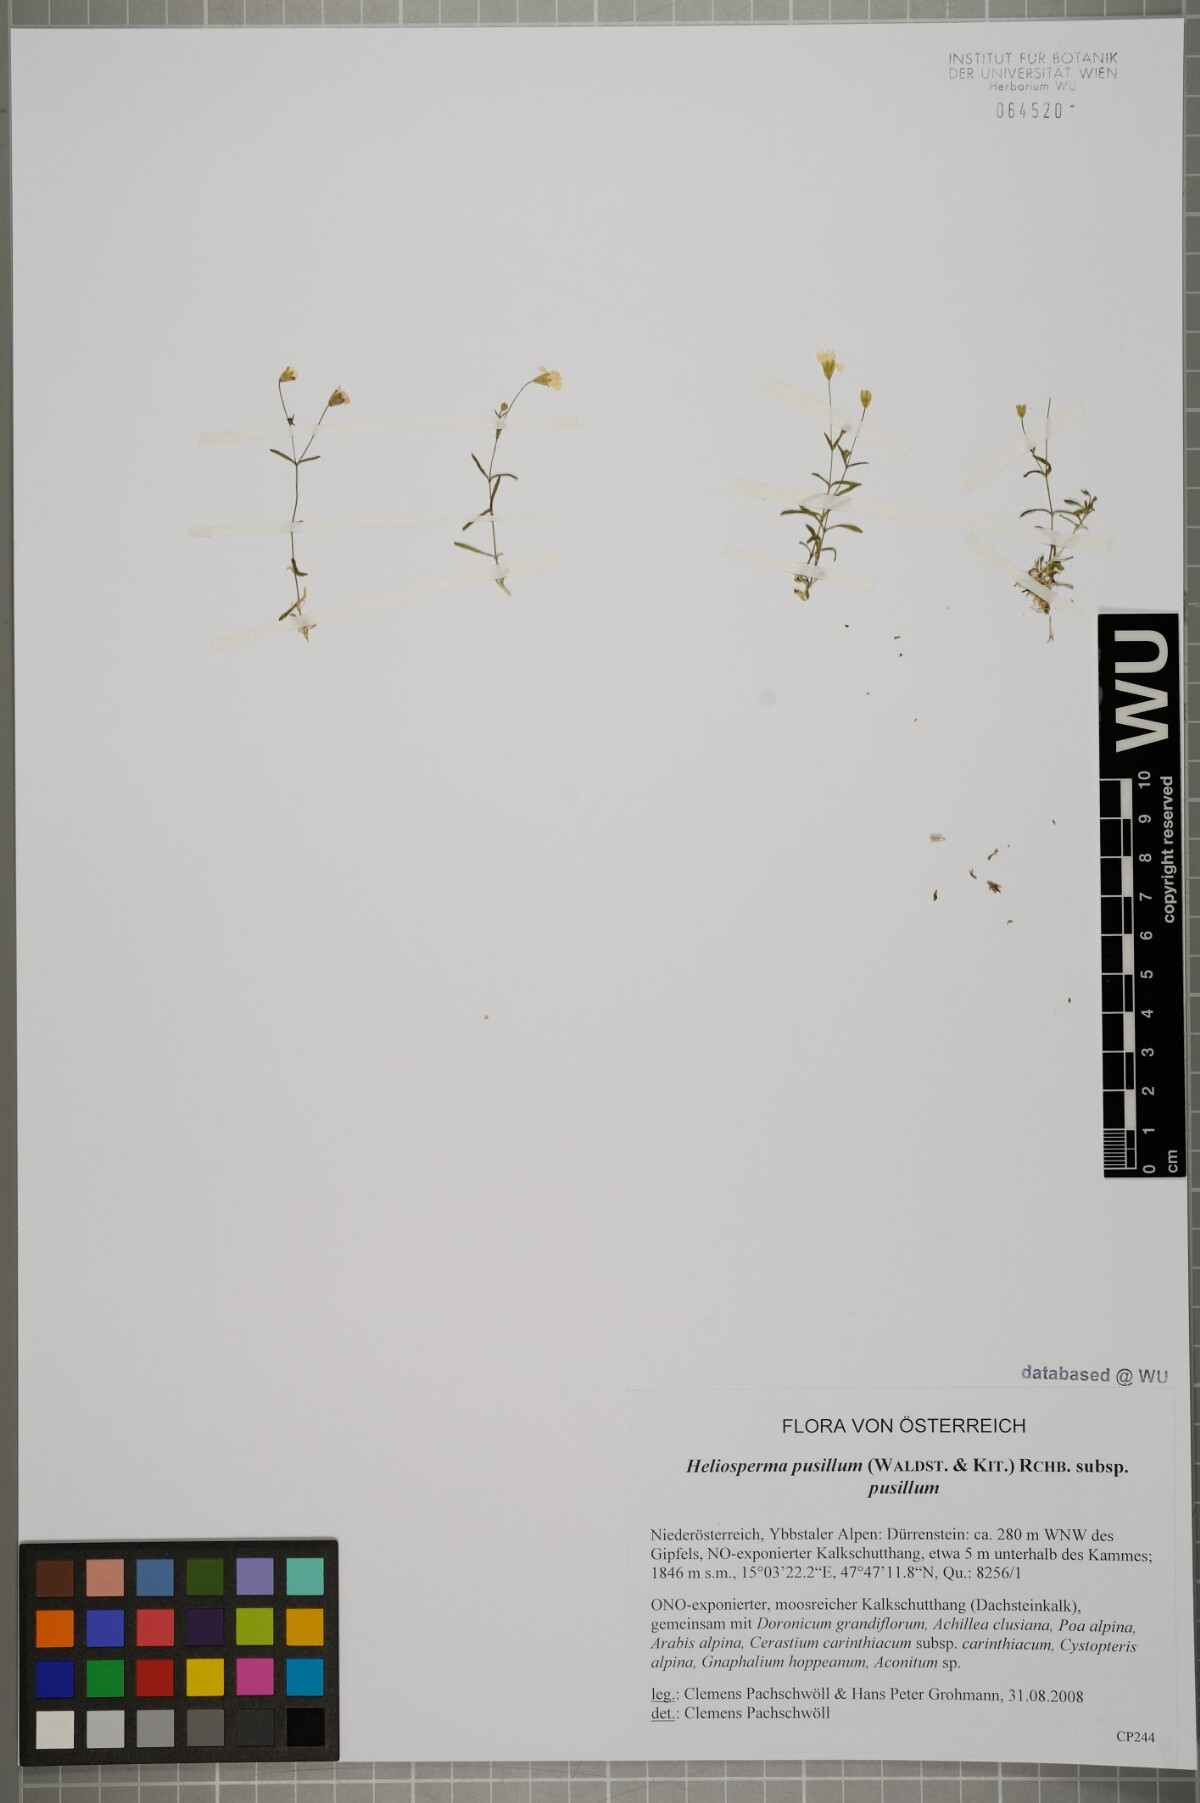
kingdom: Plantae
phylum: Tracheophyta
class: Magnoliopsida
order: Caryophyllales
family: Caryophyllaceae
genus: Heliosperma
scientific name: Heliosperma pusillum
